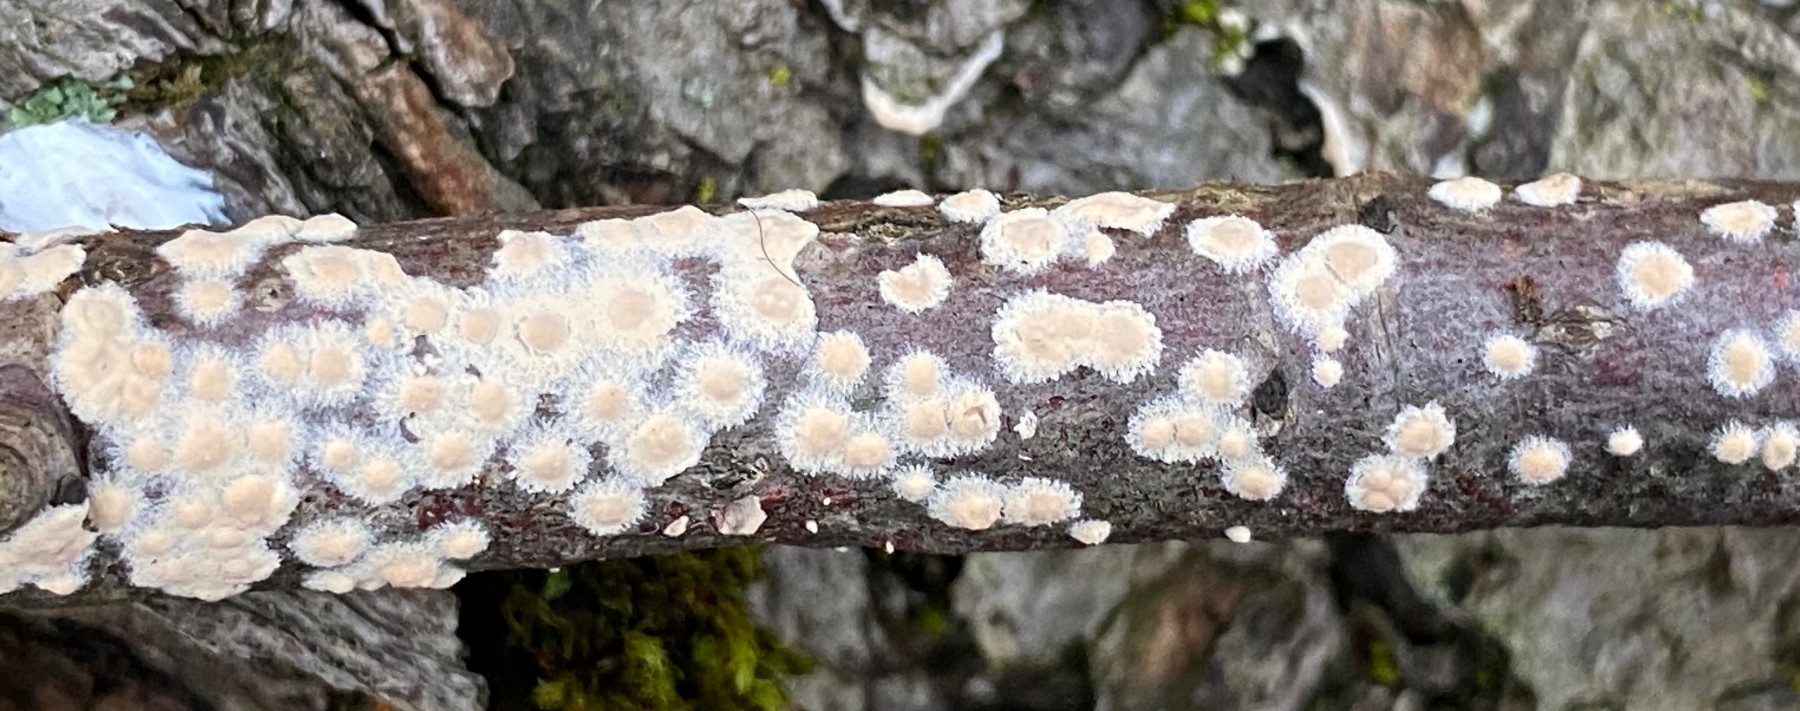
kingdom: Fungi
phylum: Basidiomycota
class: Agaricomycetes
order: Agaricales
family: Physalacriaceae
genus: Cylindrobasidium
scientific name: Cylindrobasidium evolvens
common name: sprækkehinde
